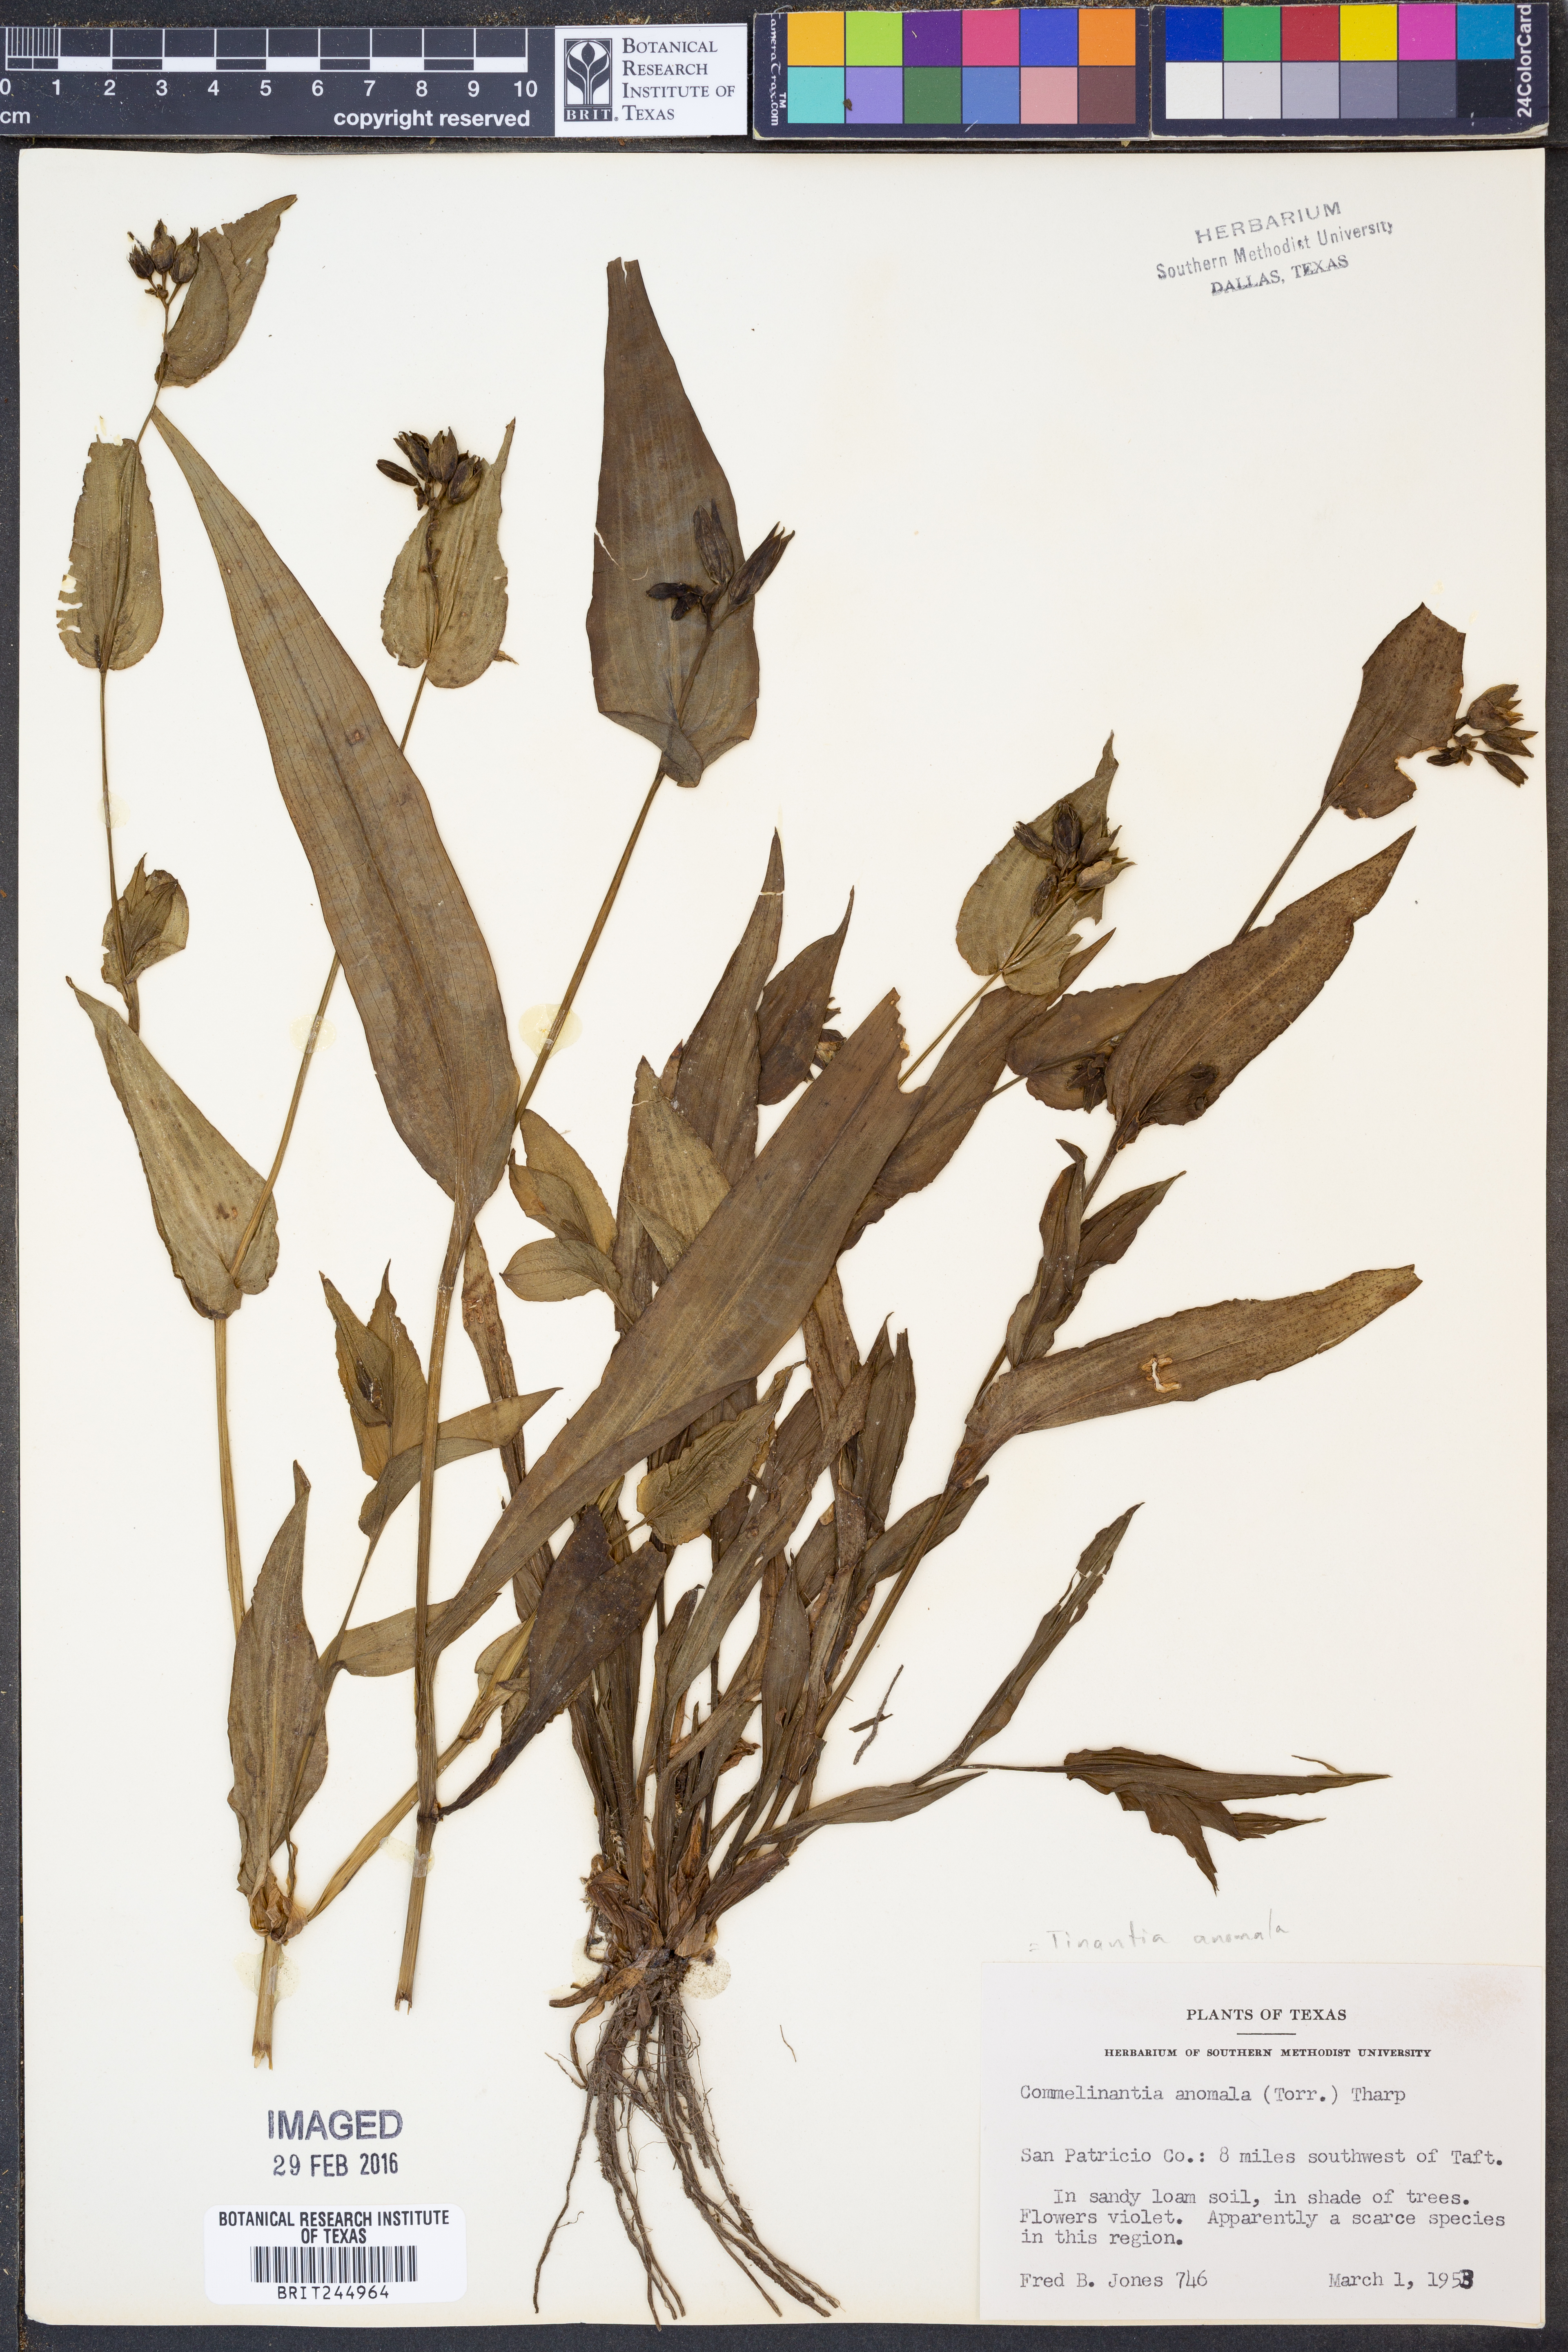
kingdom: Plantae
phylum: Tracheophyta
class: Liliopsida
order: Commelinales
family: Commelinaceae
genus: Tinantia
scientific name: Tinantia anomala
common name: False dayflower
